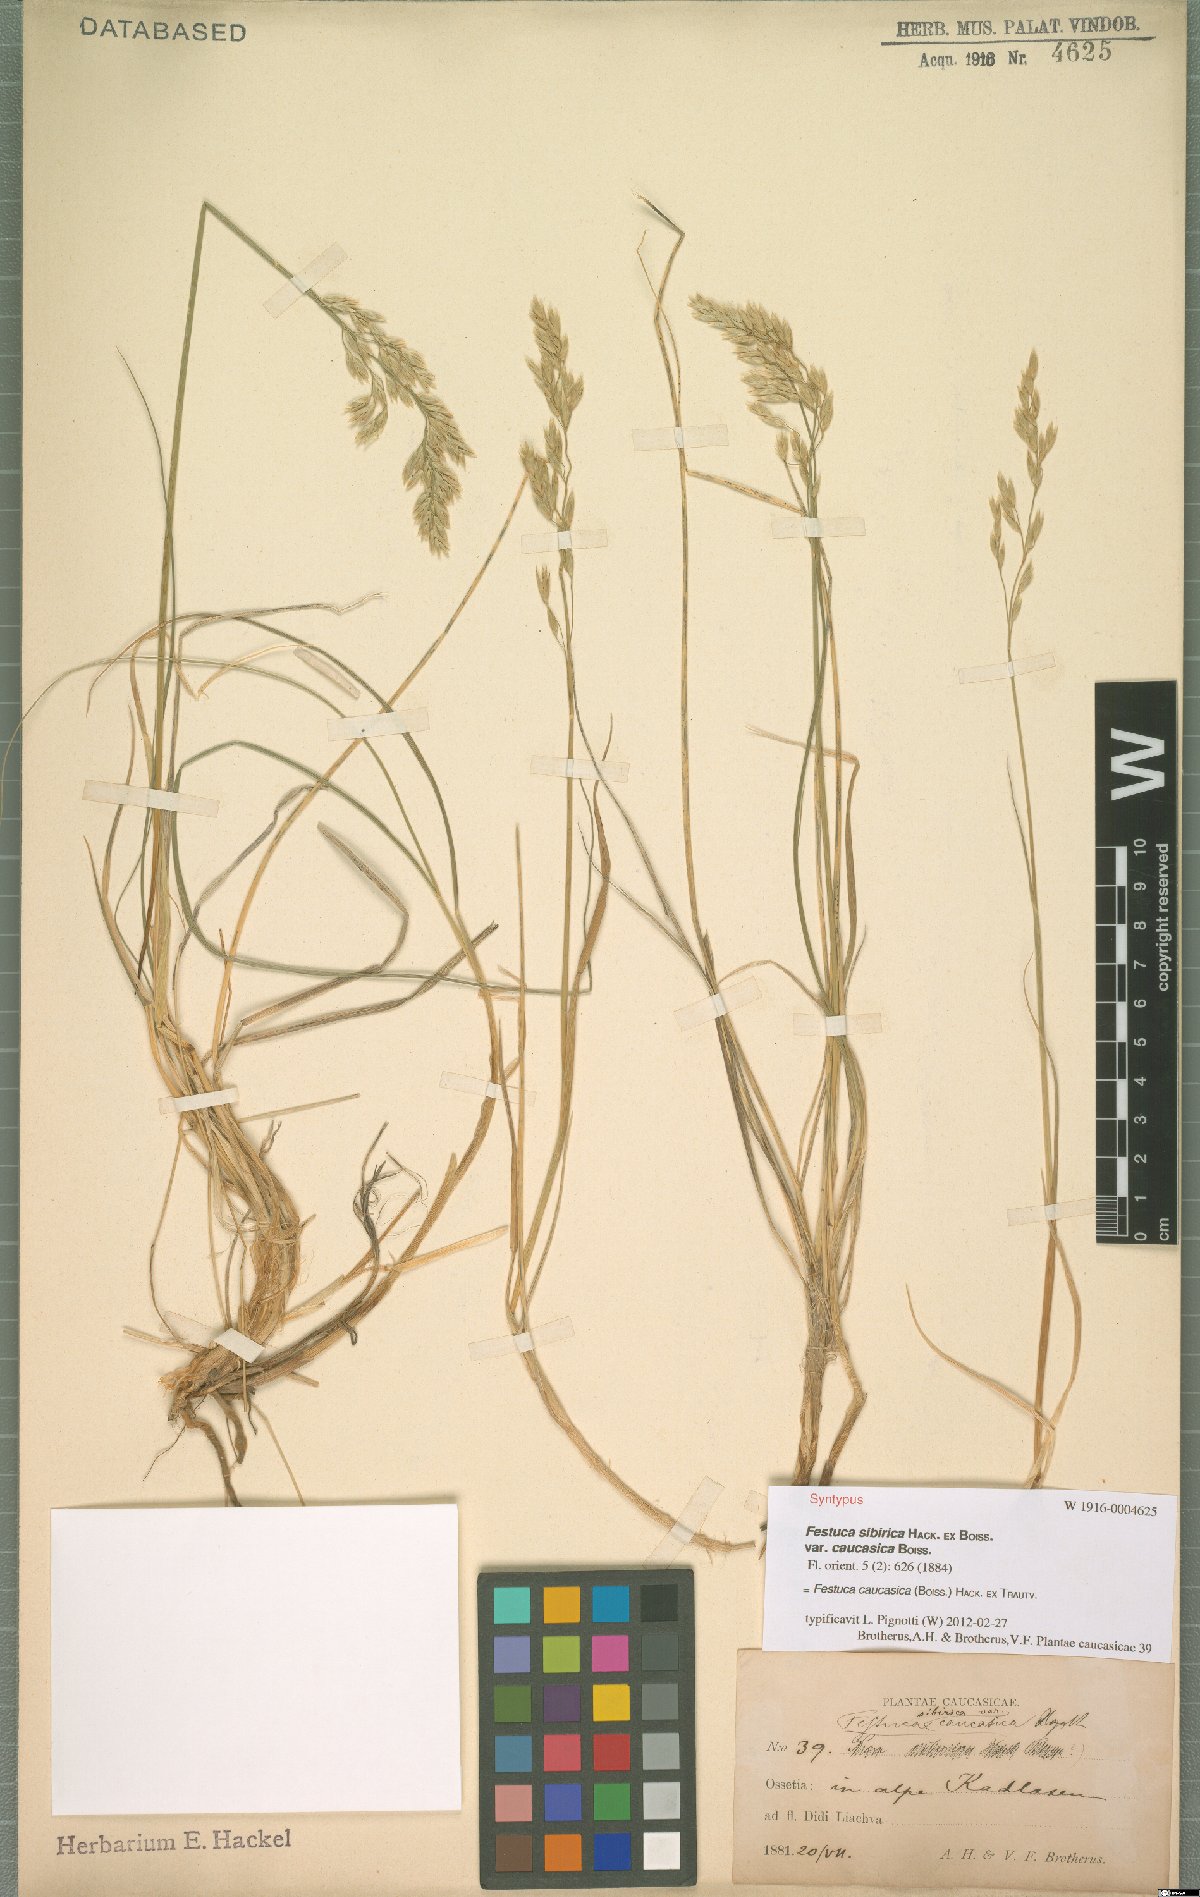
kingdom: Plantae
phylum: Tracheophyta
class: Liliopsida
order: Poales
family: Poaceae
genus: Festuca
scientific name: Festuca caucasica
